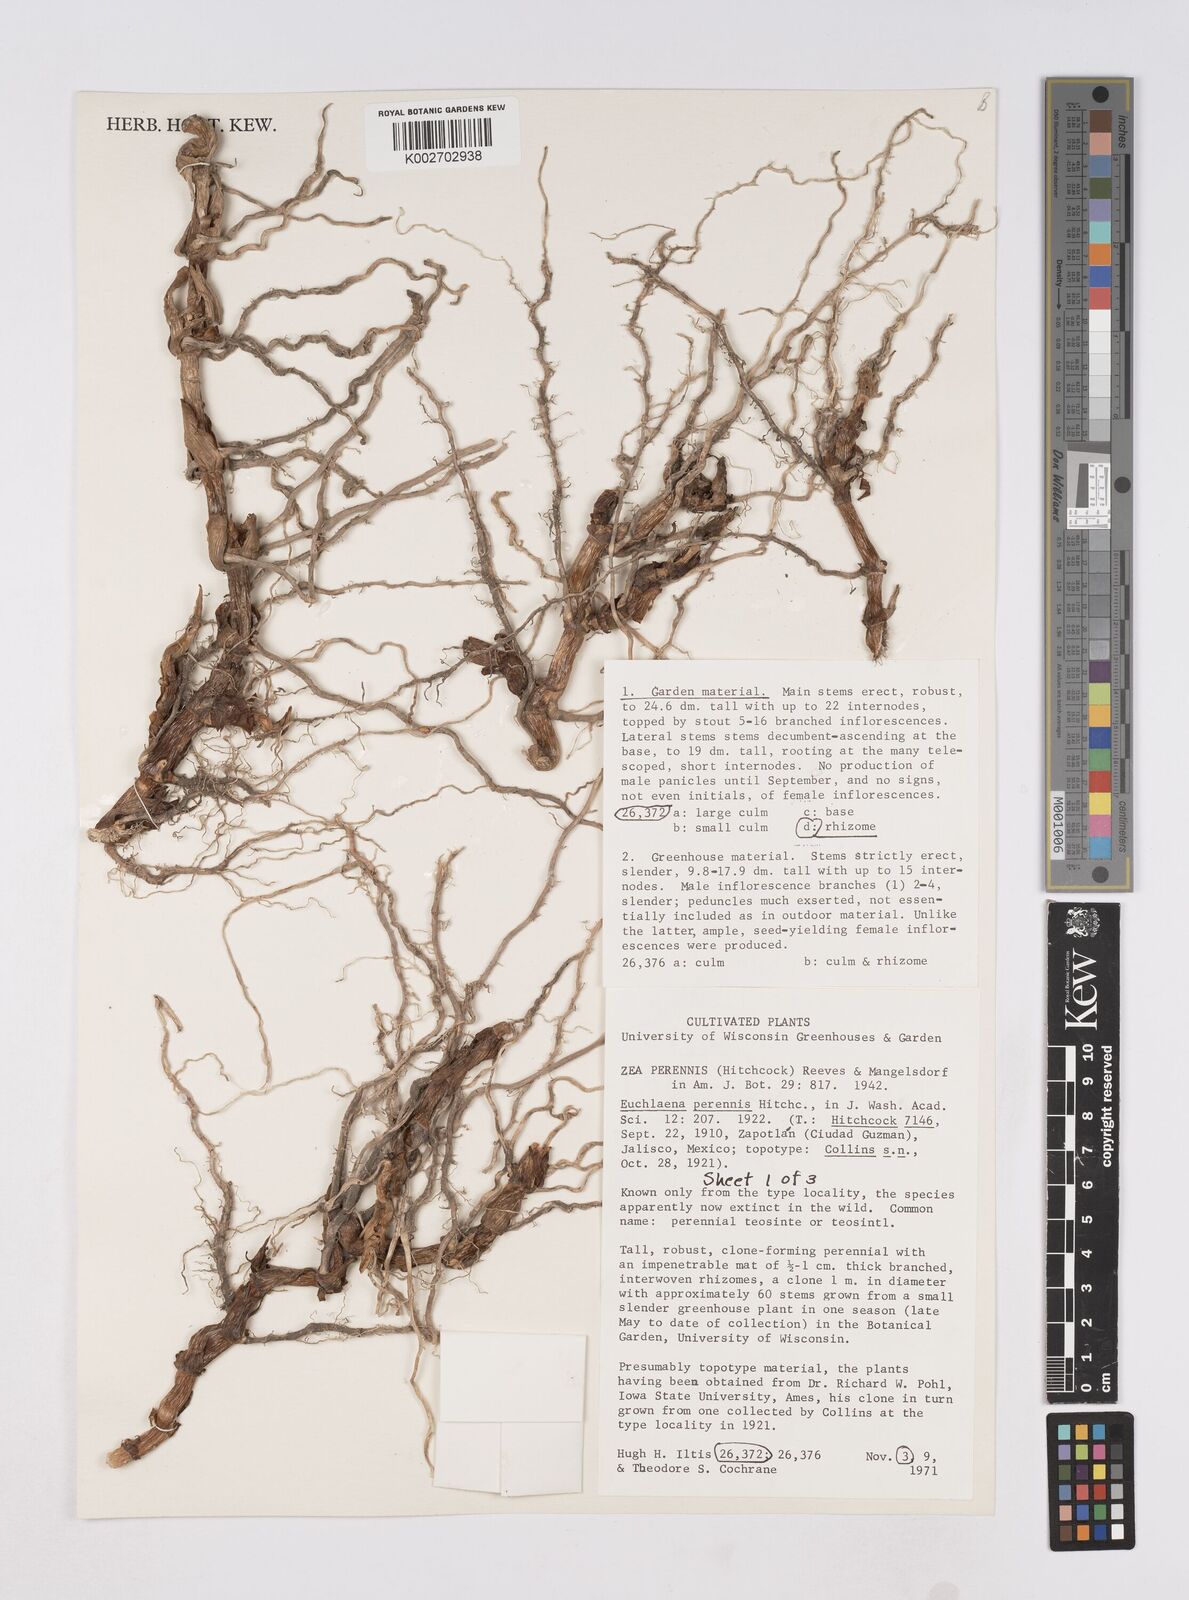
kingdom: Plantae
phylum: Tracheophyta
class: Liliopsida
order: Poales
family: Poaceae
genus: Zea
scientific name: Zea perennis
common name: Perennial teosinte
